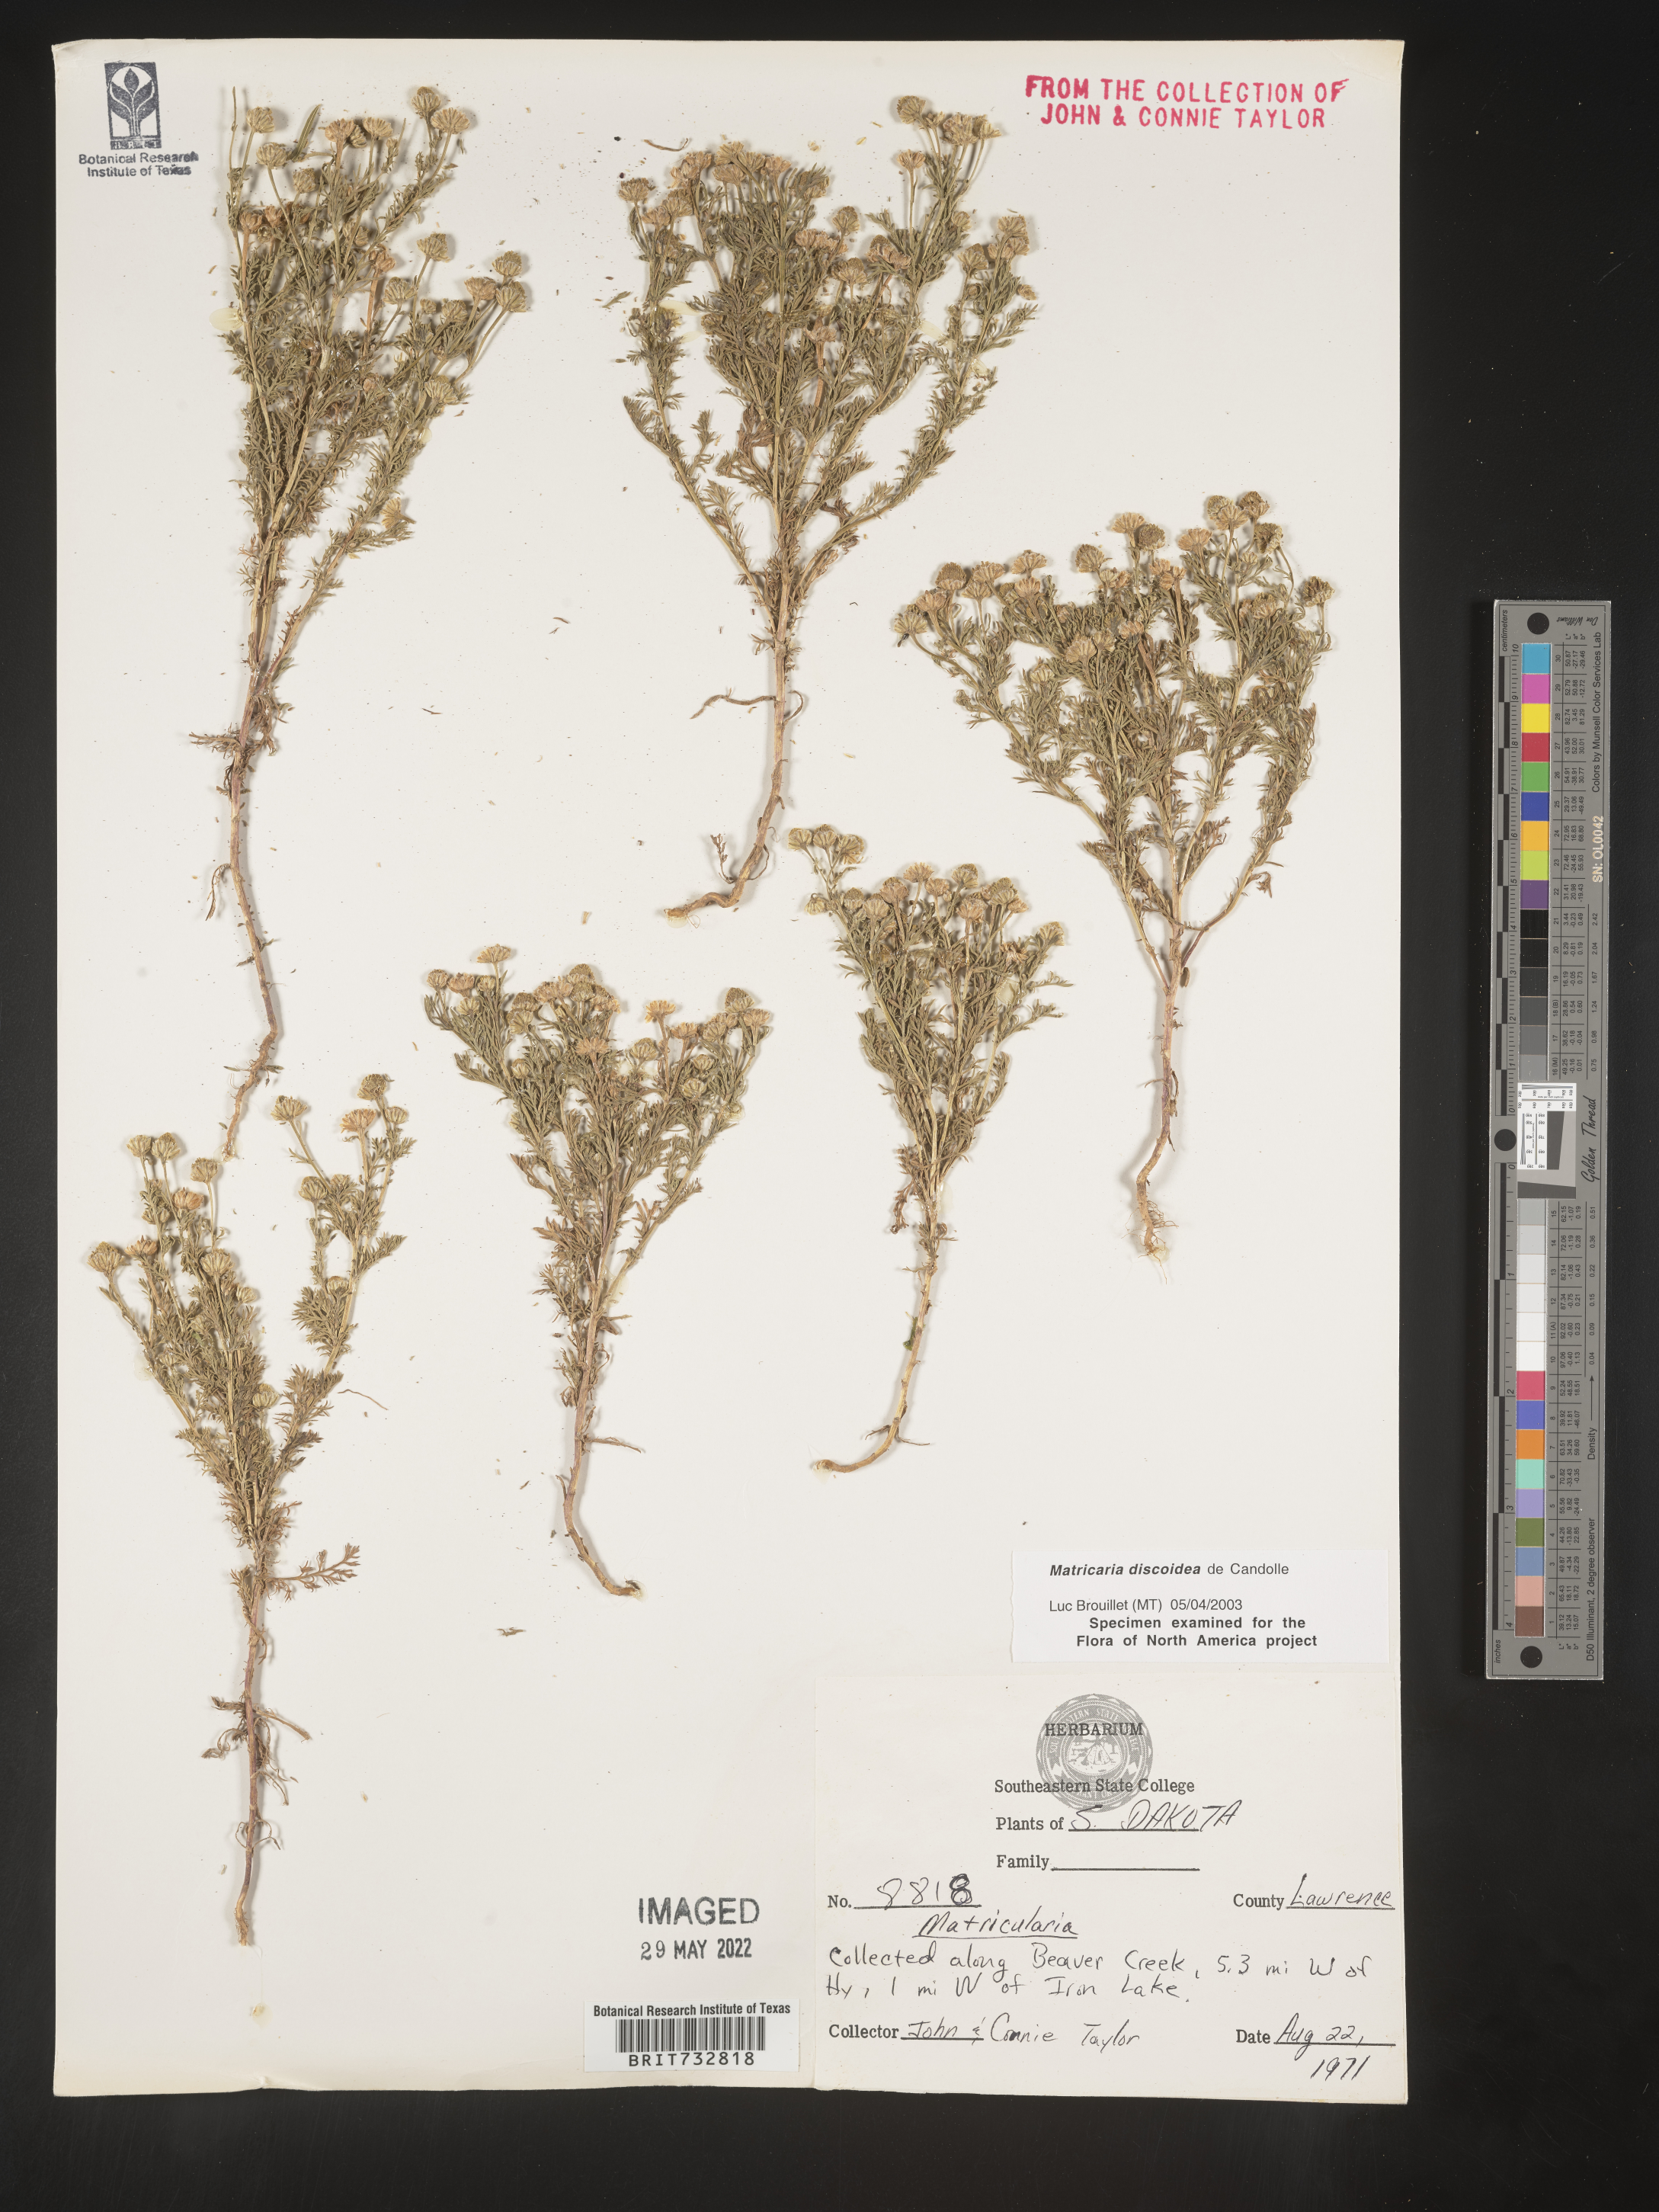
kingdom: Plantae
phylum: Tracheophyta
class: Magnoliopsida
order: Asterales
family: Asteraceae
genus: Matricaria
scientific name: Matricaria discoidea
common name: Disc mayweed
